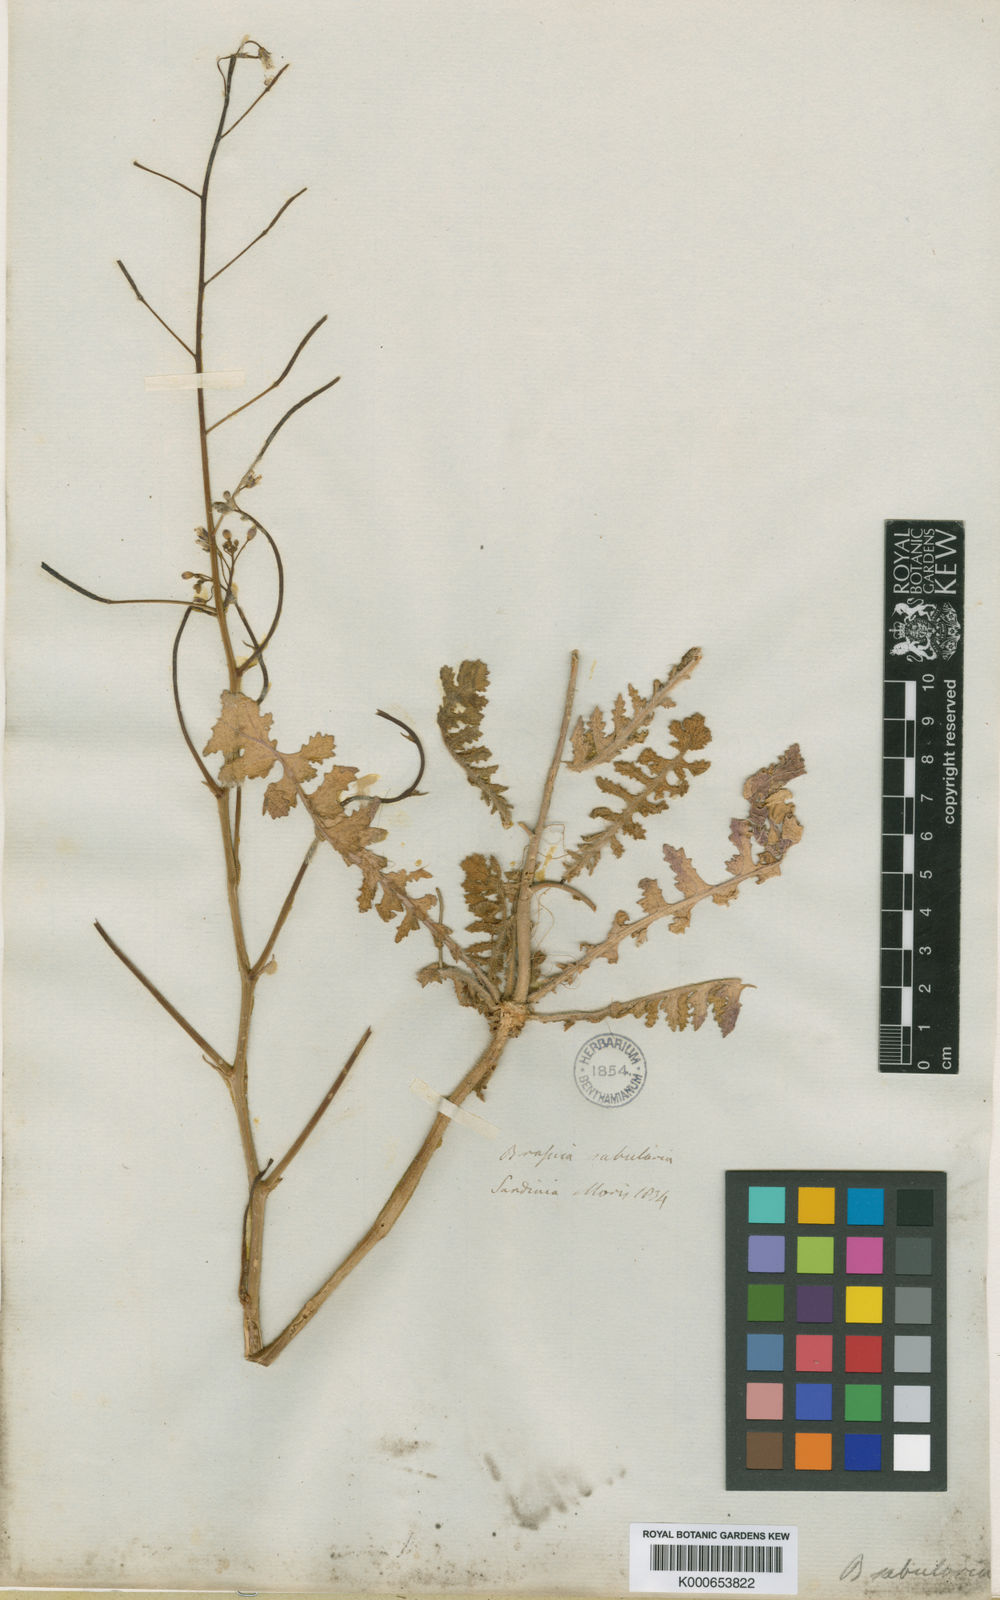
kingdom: Plantae
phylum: Tracheophyta
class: Magnoliopsida
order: Brassicales
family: Brassicaceae
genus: Brassica
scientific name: Brassica tournefortii
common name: Pale cabbage
